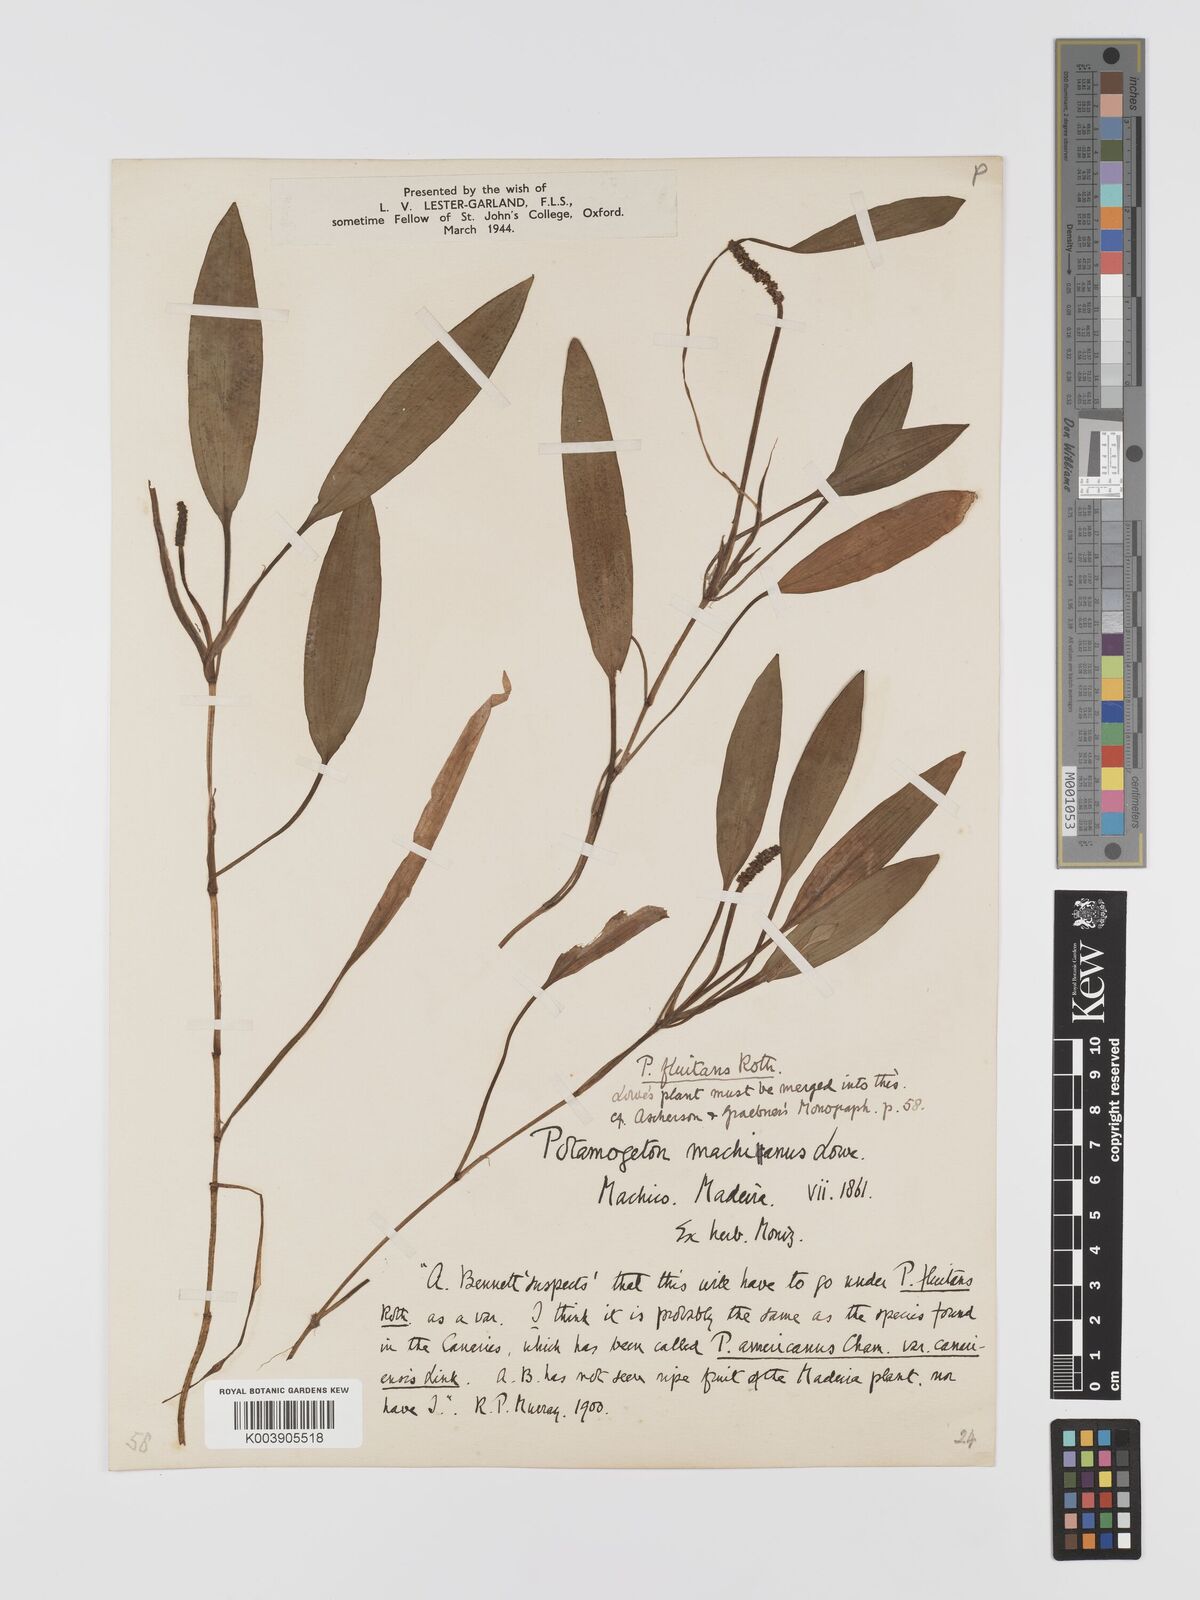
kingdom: Plantae
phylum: Tracheophyta
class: Liliopsida
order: Alismatales
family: Potamogetonaceae
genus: Potamogeton
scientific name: Potamogeton nodosus
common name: Loddon pondweed
